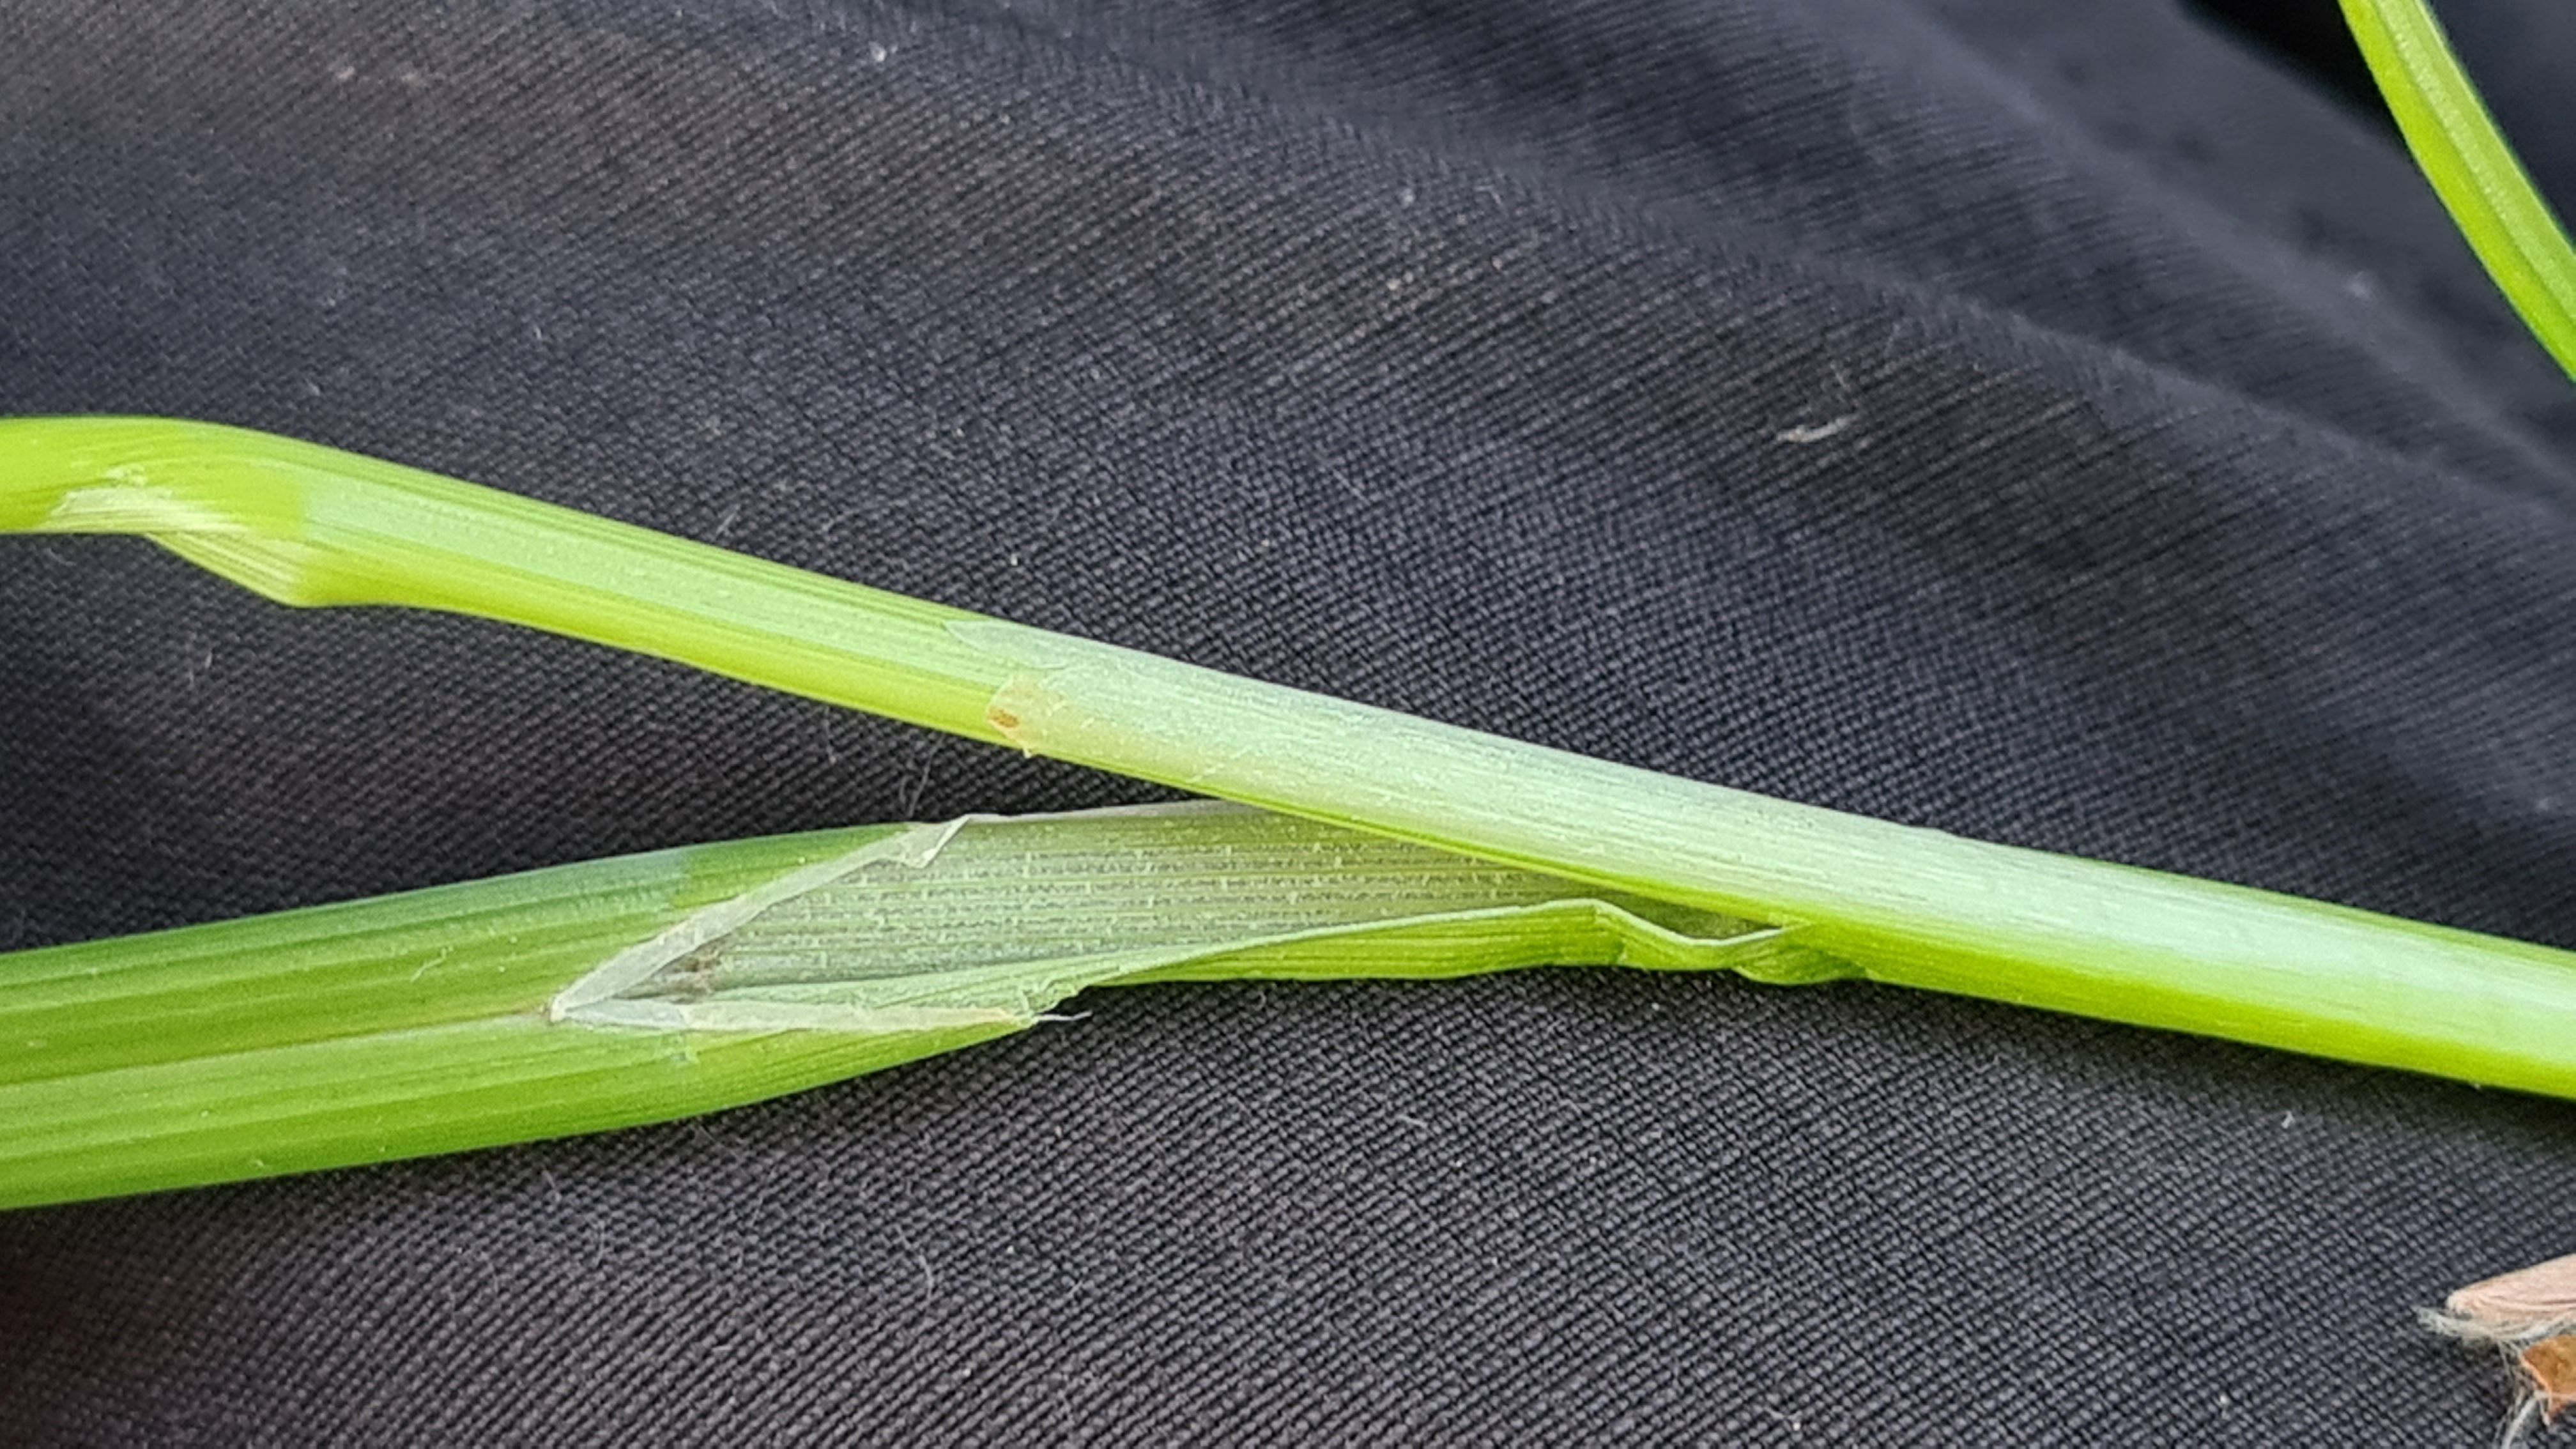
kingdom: Plantae
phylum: Tracheophyta
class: Liliopsida
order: Poales
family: Cyperaceae
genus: Carex
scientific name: Carex strigosa
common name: Tyndakset star
